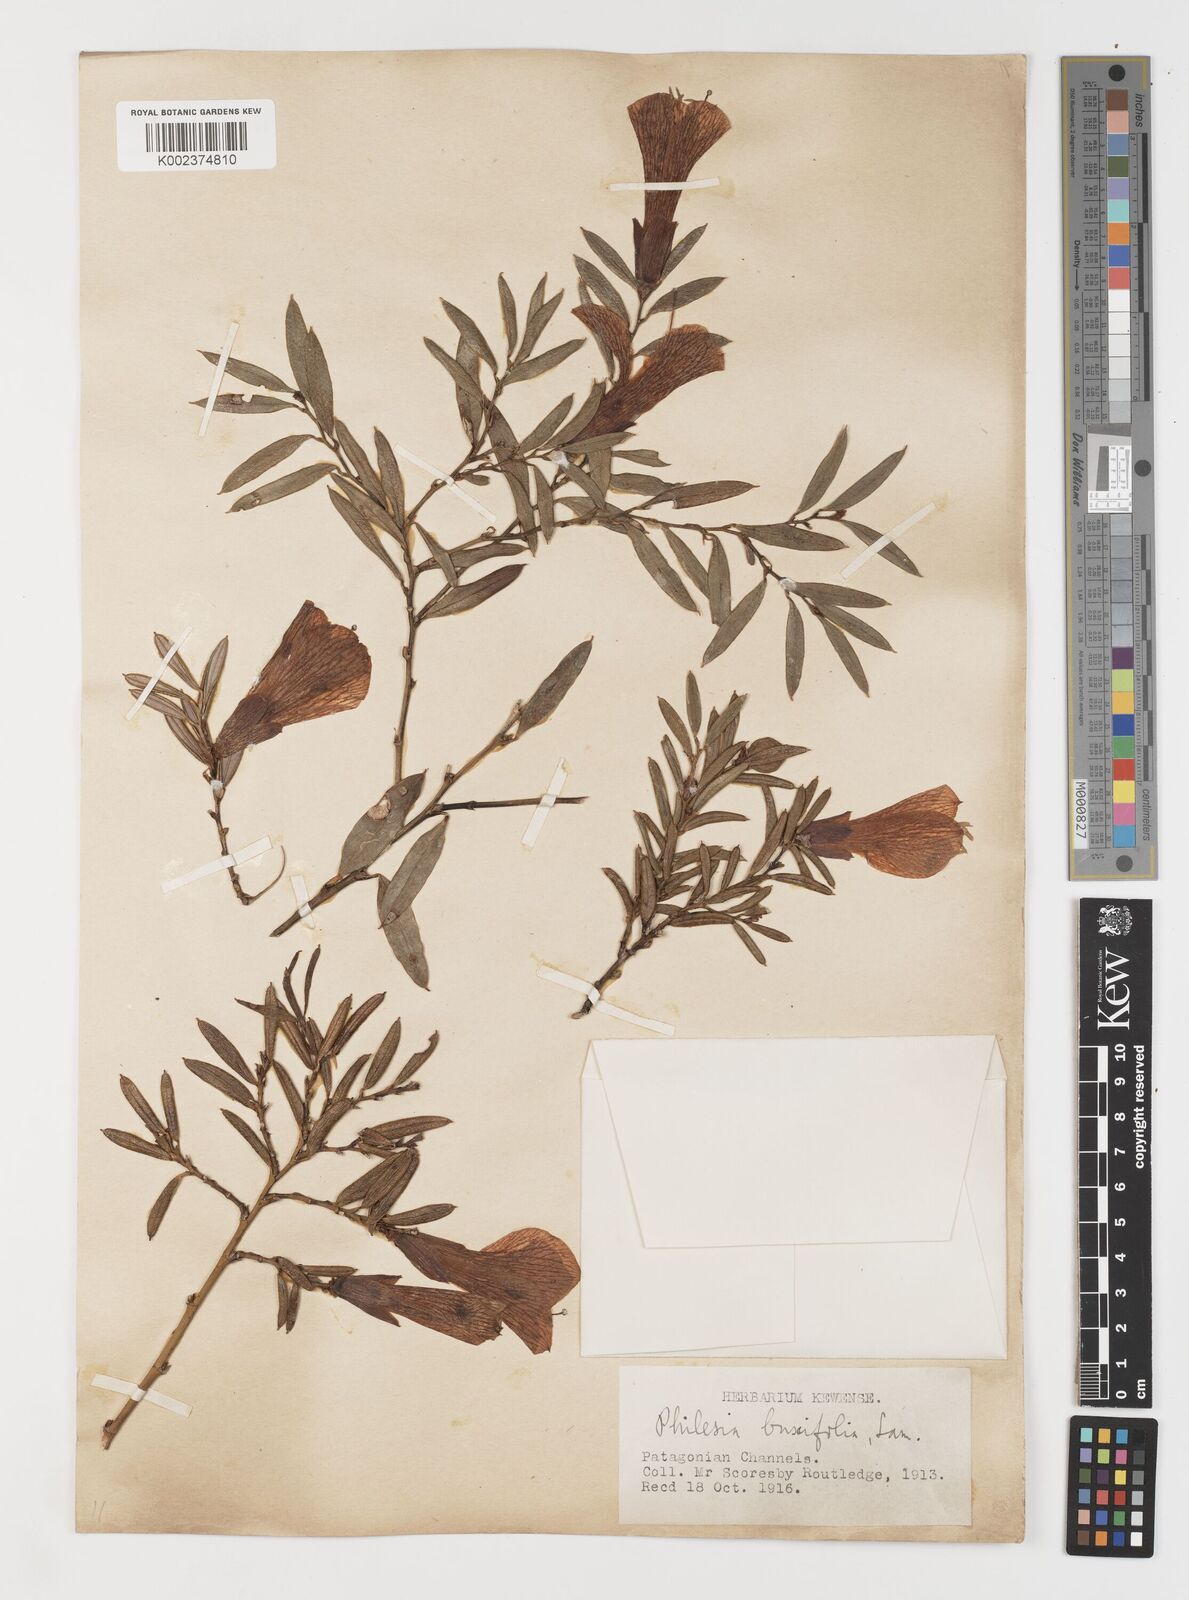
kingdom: Plantae
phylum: Tracheophyta
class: Liliopsida
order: Liliales
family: Philesiaceae
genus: Philesia
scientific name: Philesia magellanica
